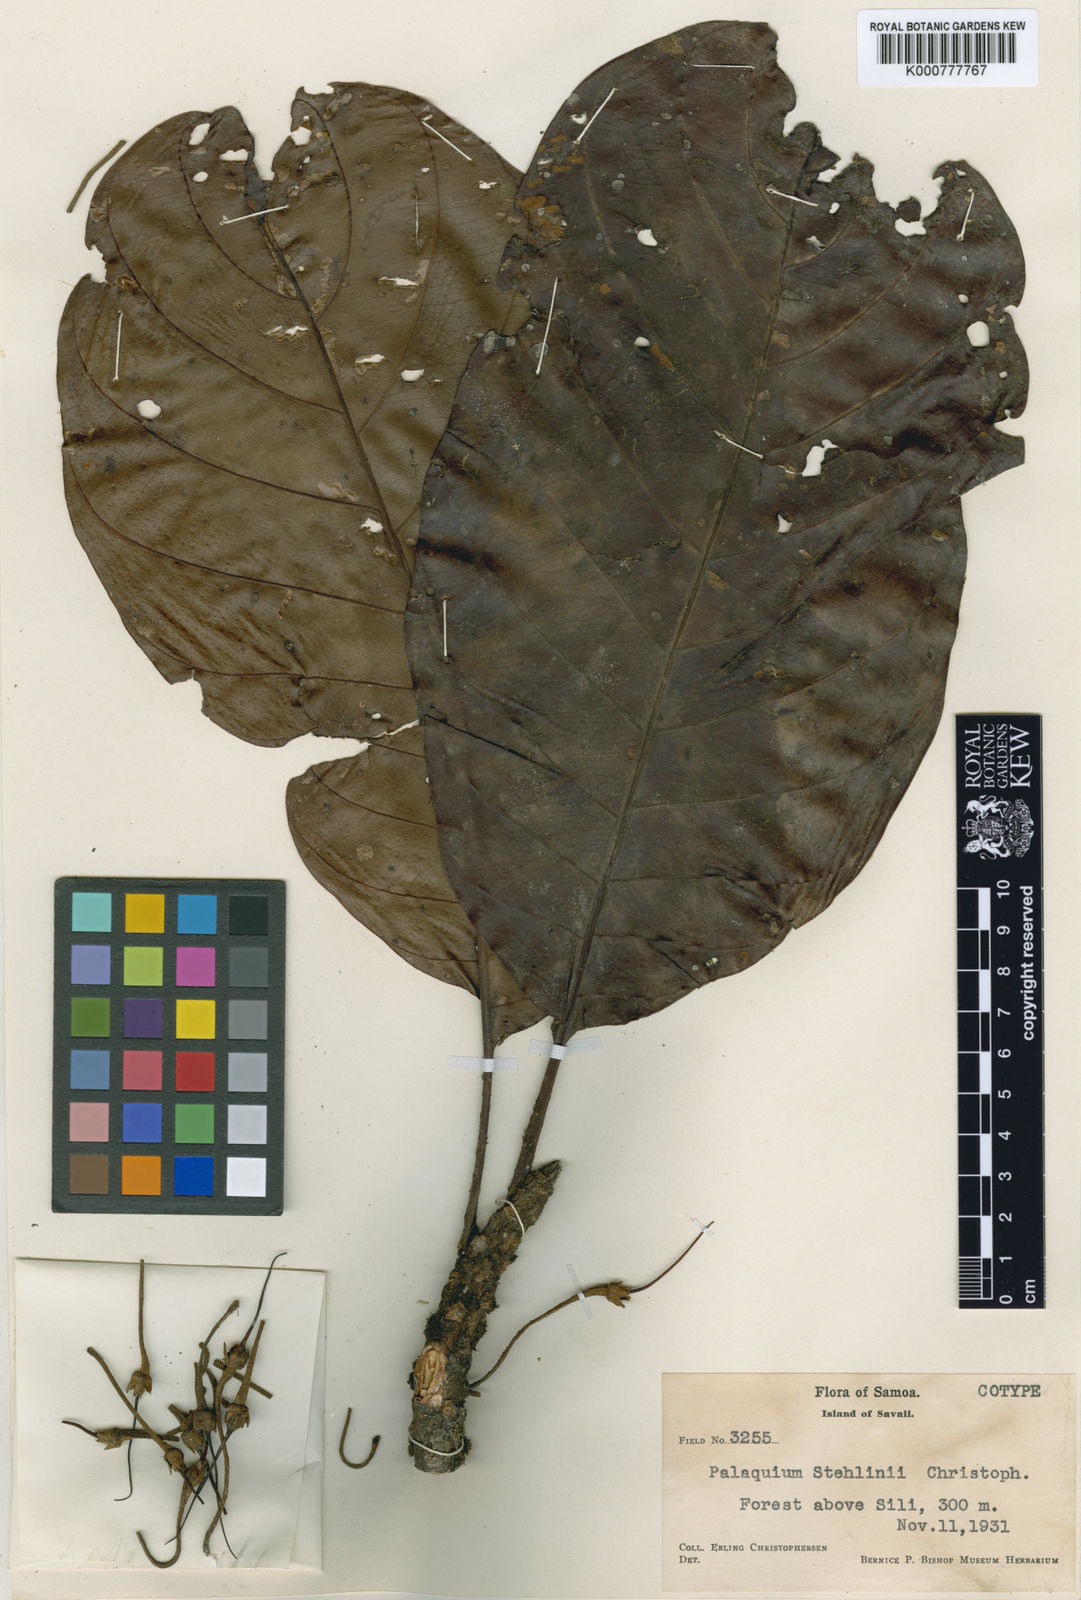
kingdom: Plantae
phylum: Tracheophyta
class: Magnoliopsida
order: Ericales
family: Sapotaceae
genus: Palaquium
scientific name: Palaquium stehlinii
